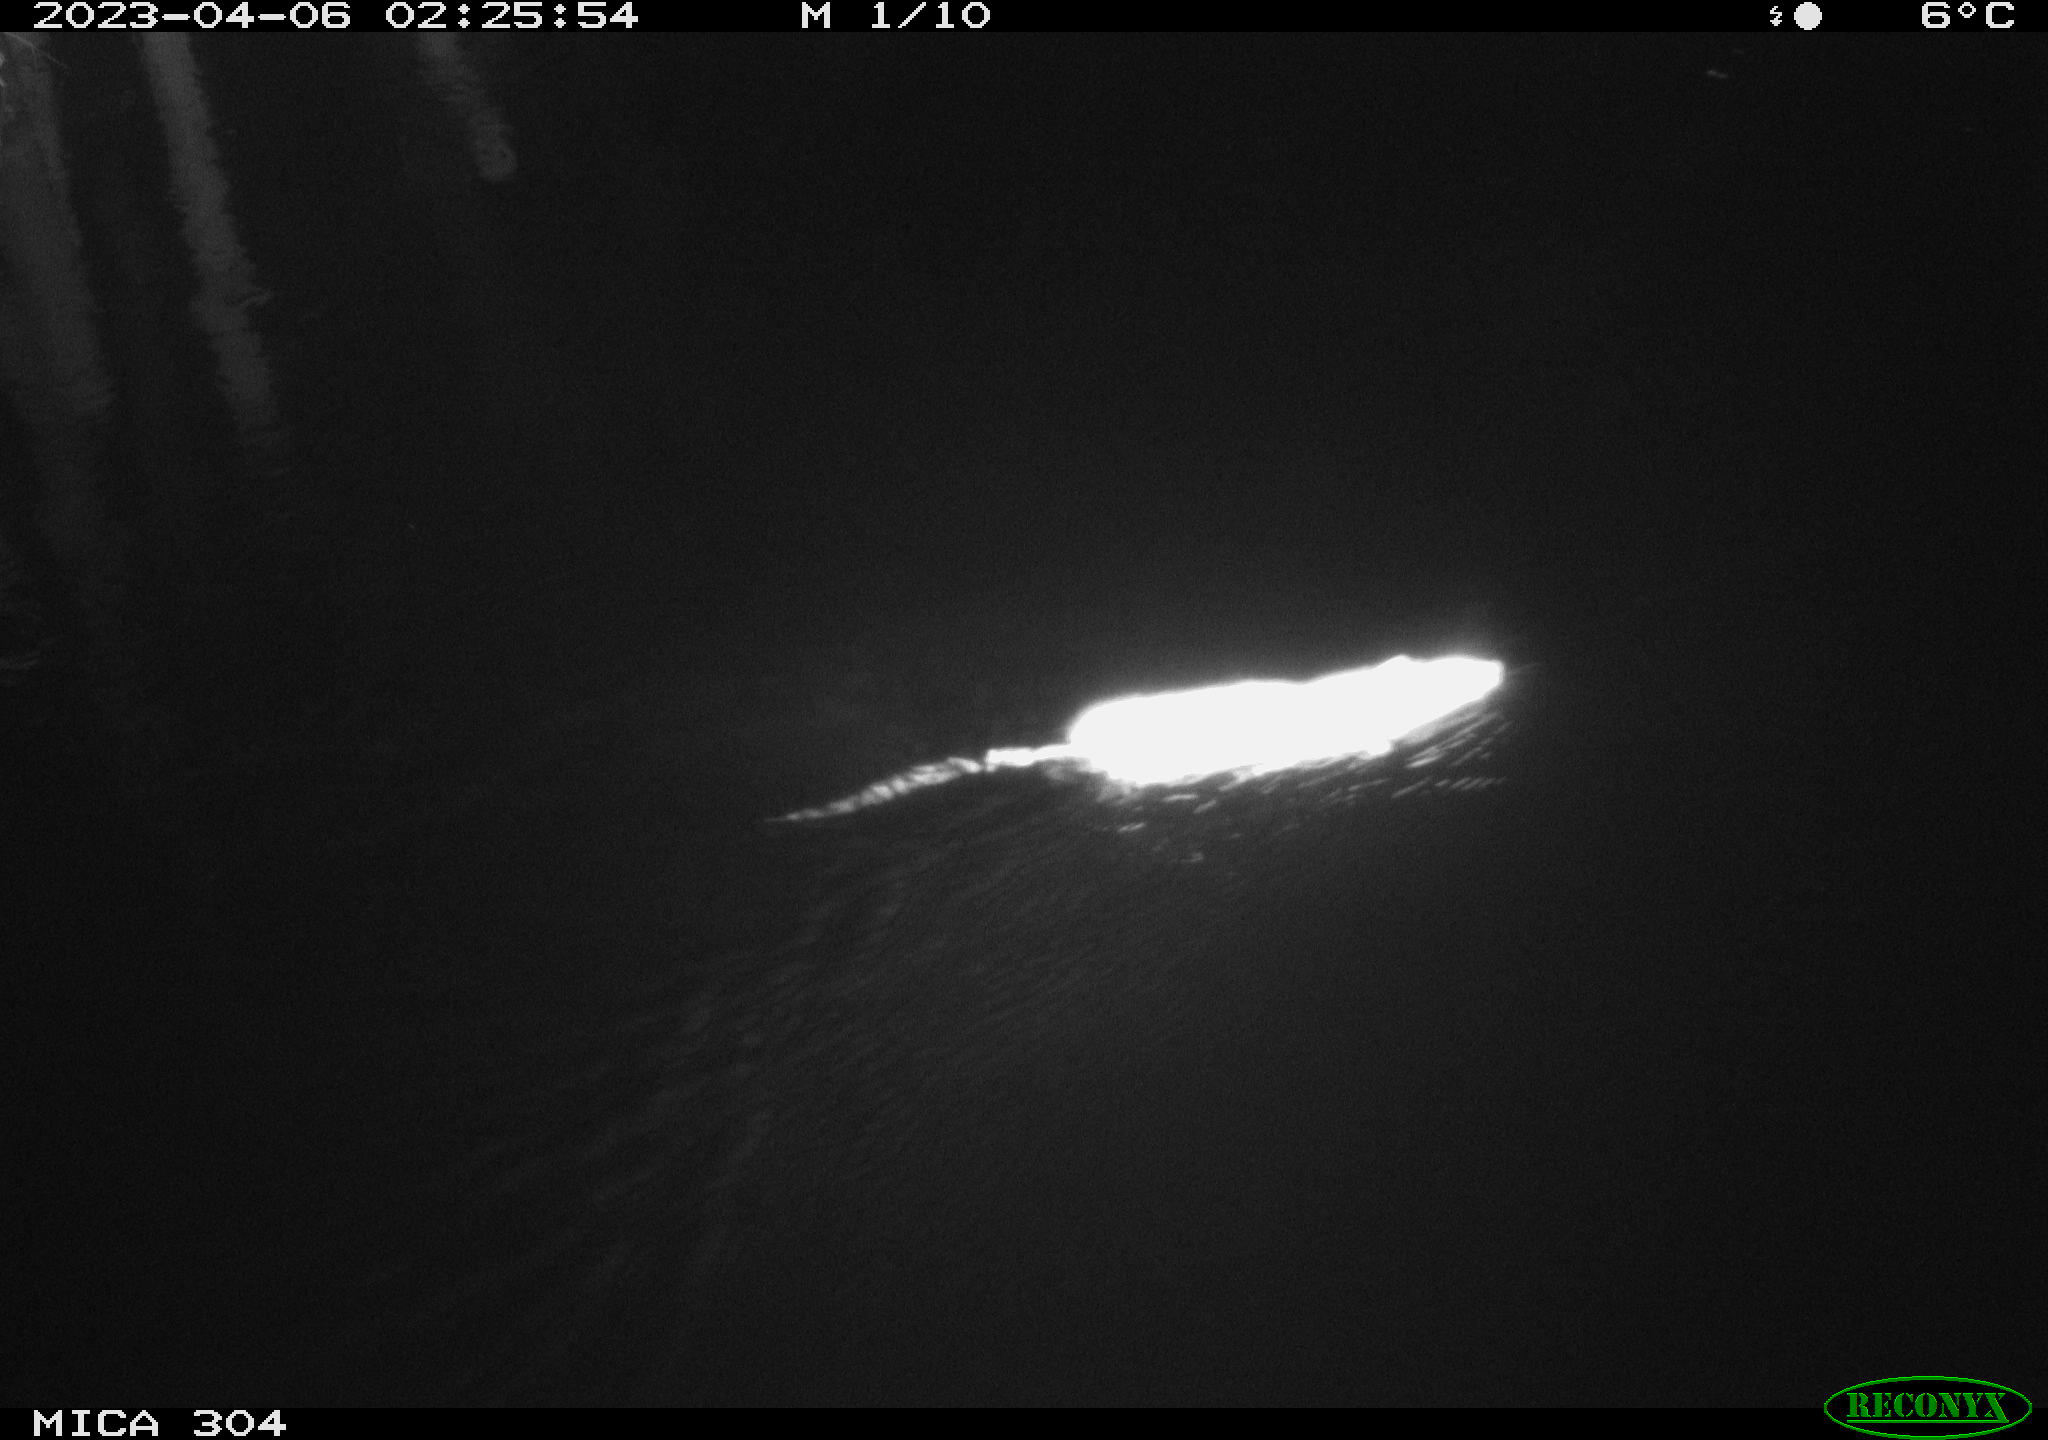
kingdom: Animalia
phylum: Chordata
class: Mammalia
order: Rodentia
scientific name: Rodentia
